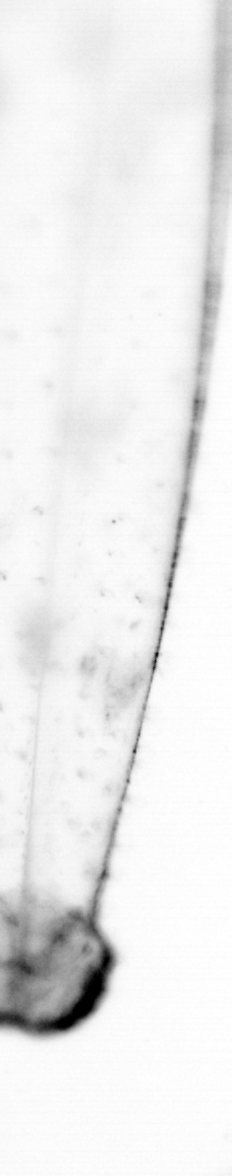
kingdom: Animalia
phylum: Chaetognatha
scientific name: Chaetognatha
